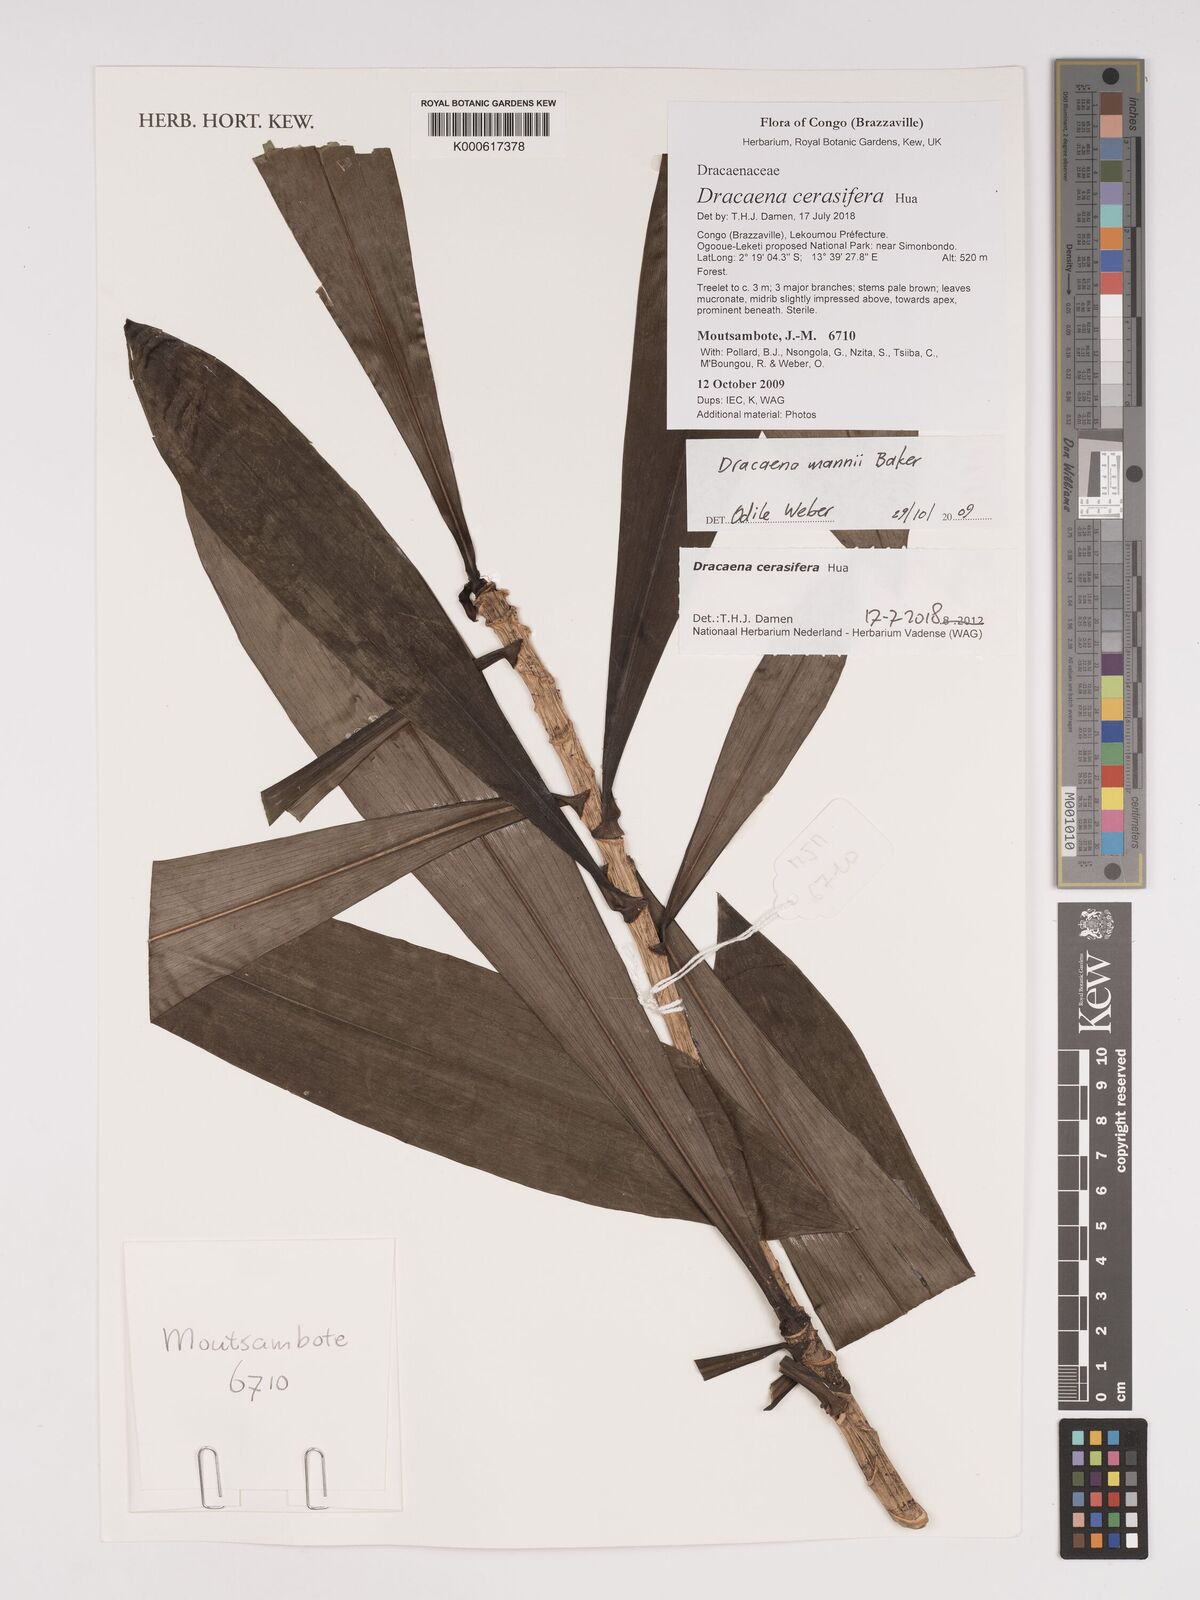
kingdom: Plantae
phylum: Tracheophyta
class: Liliopsida
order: Asparagales
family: Asparagaceae
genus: Dracaena
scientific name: Dracaena mannii
